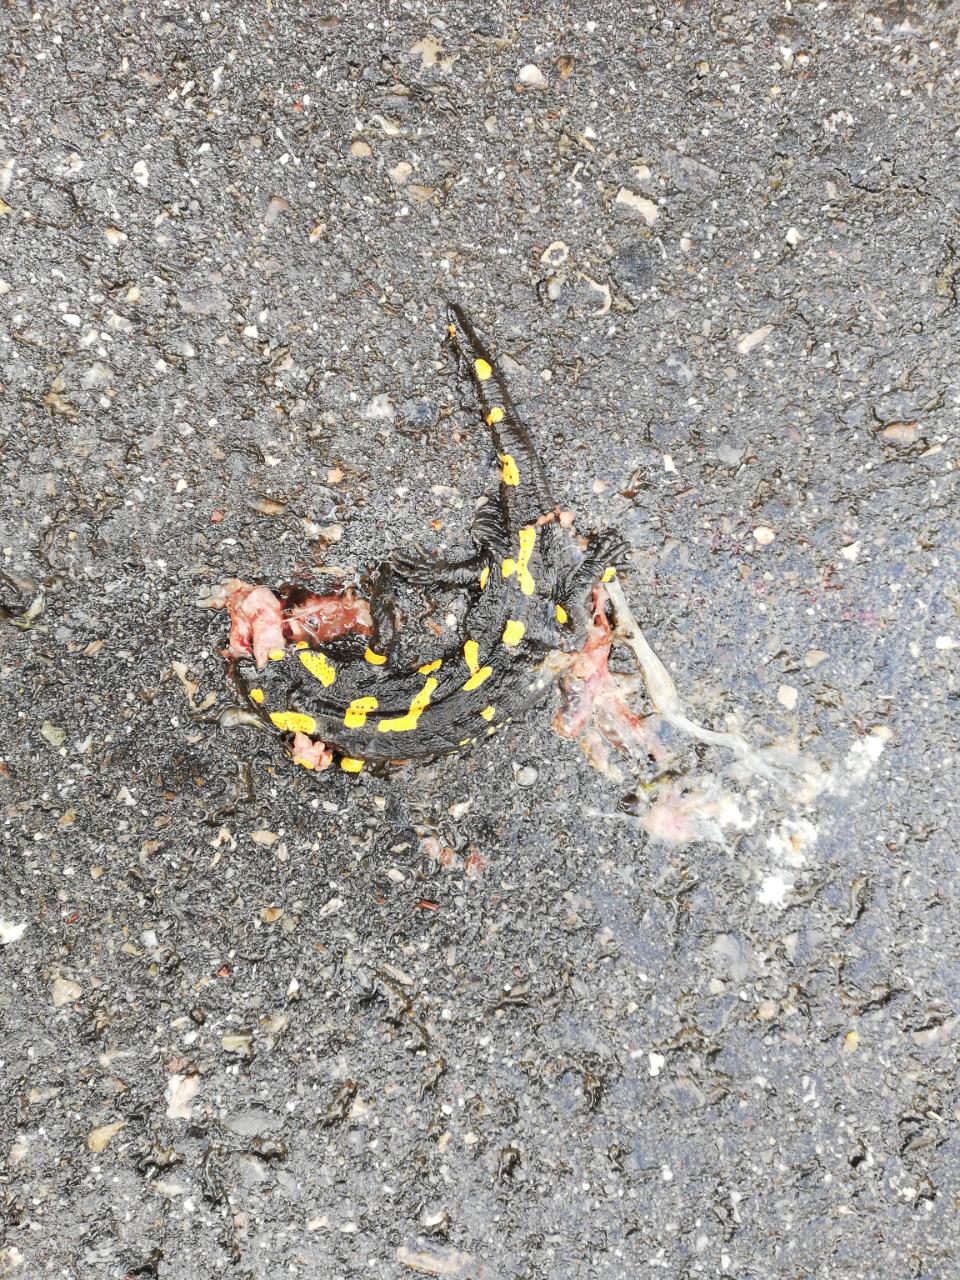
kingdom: Animalia
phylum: Chordata
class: Amphibia
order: Caudata
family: Salamandridae
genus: Salamandra
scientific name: Salamandra salamandra
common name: Fire salamander
